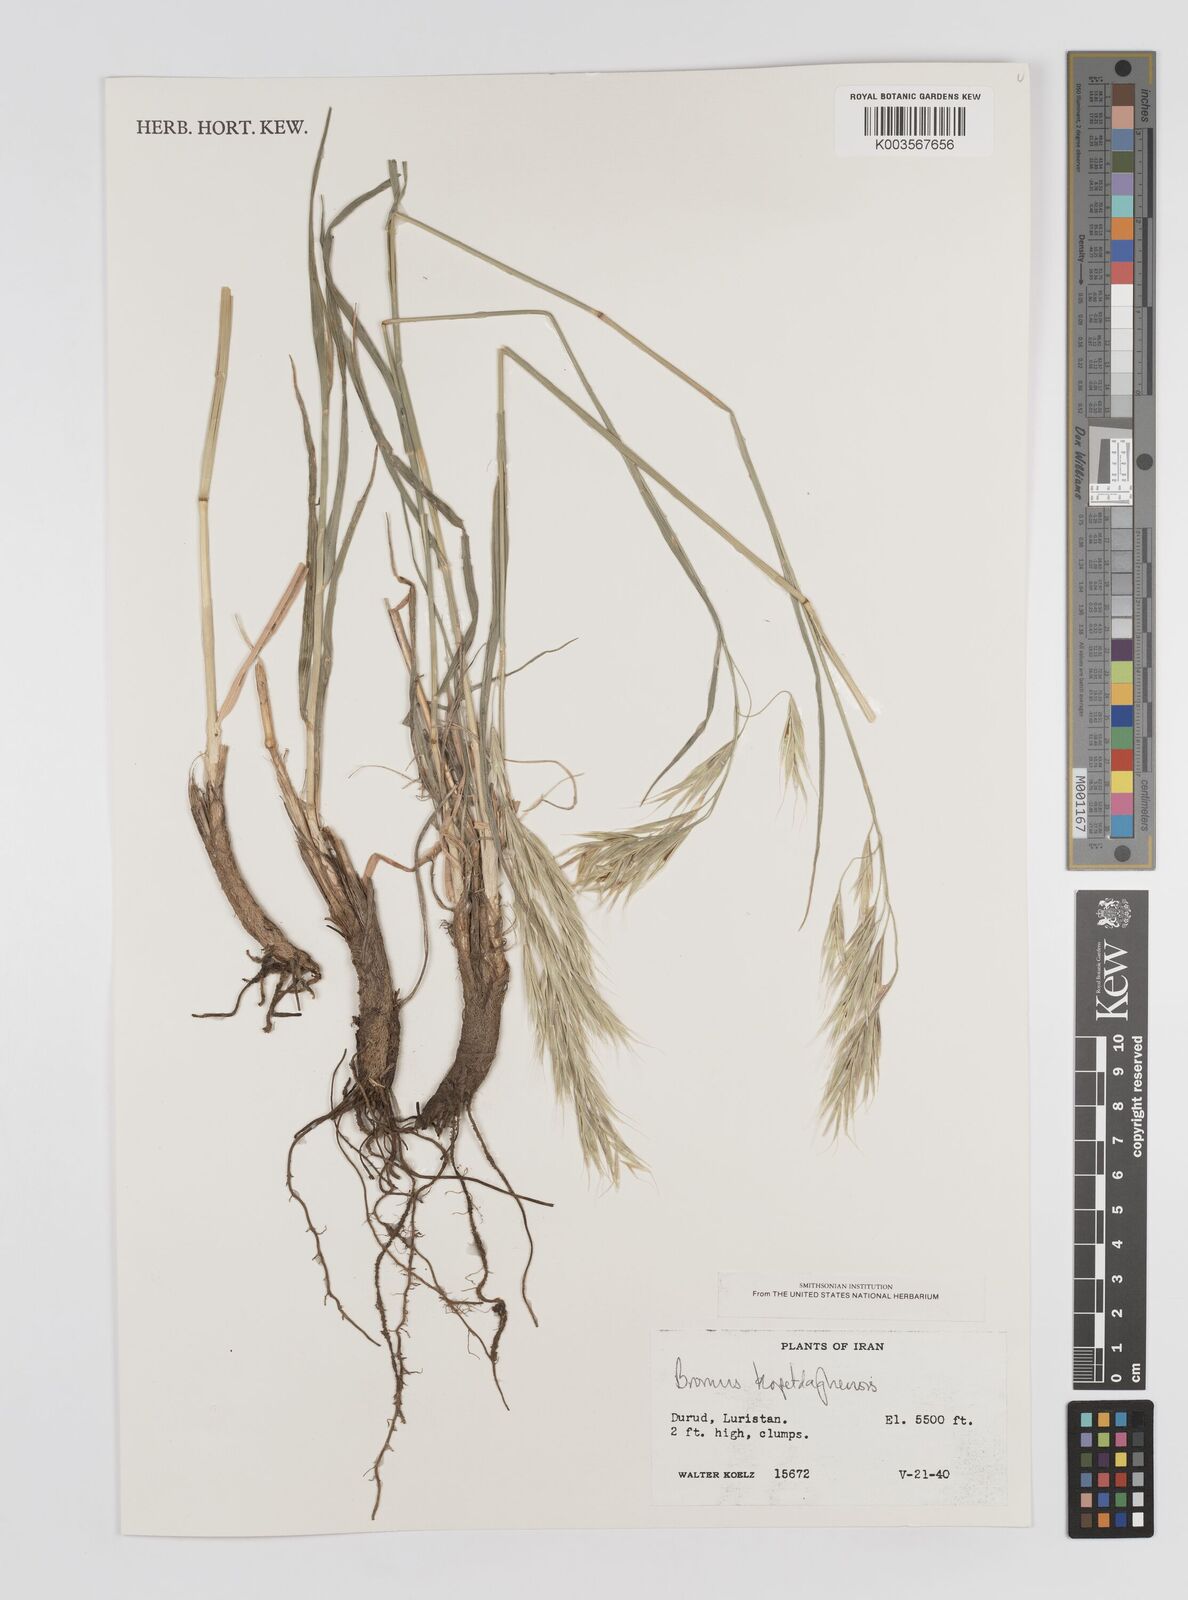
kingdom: Plantae
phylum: Tracheophyta
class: Liliopsida
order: Poales
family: Poaceae
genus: Bromus
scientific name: Bromus kopetdagensis
